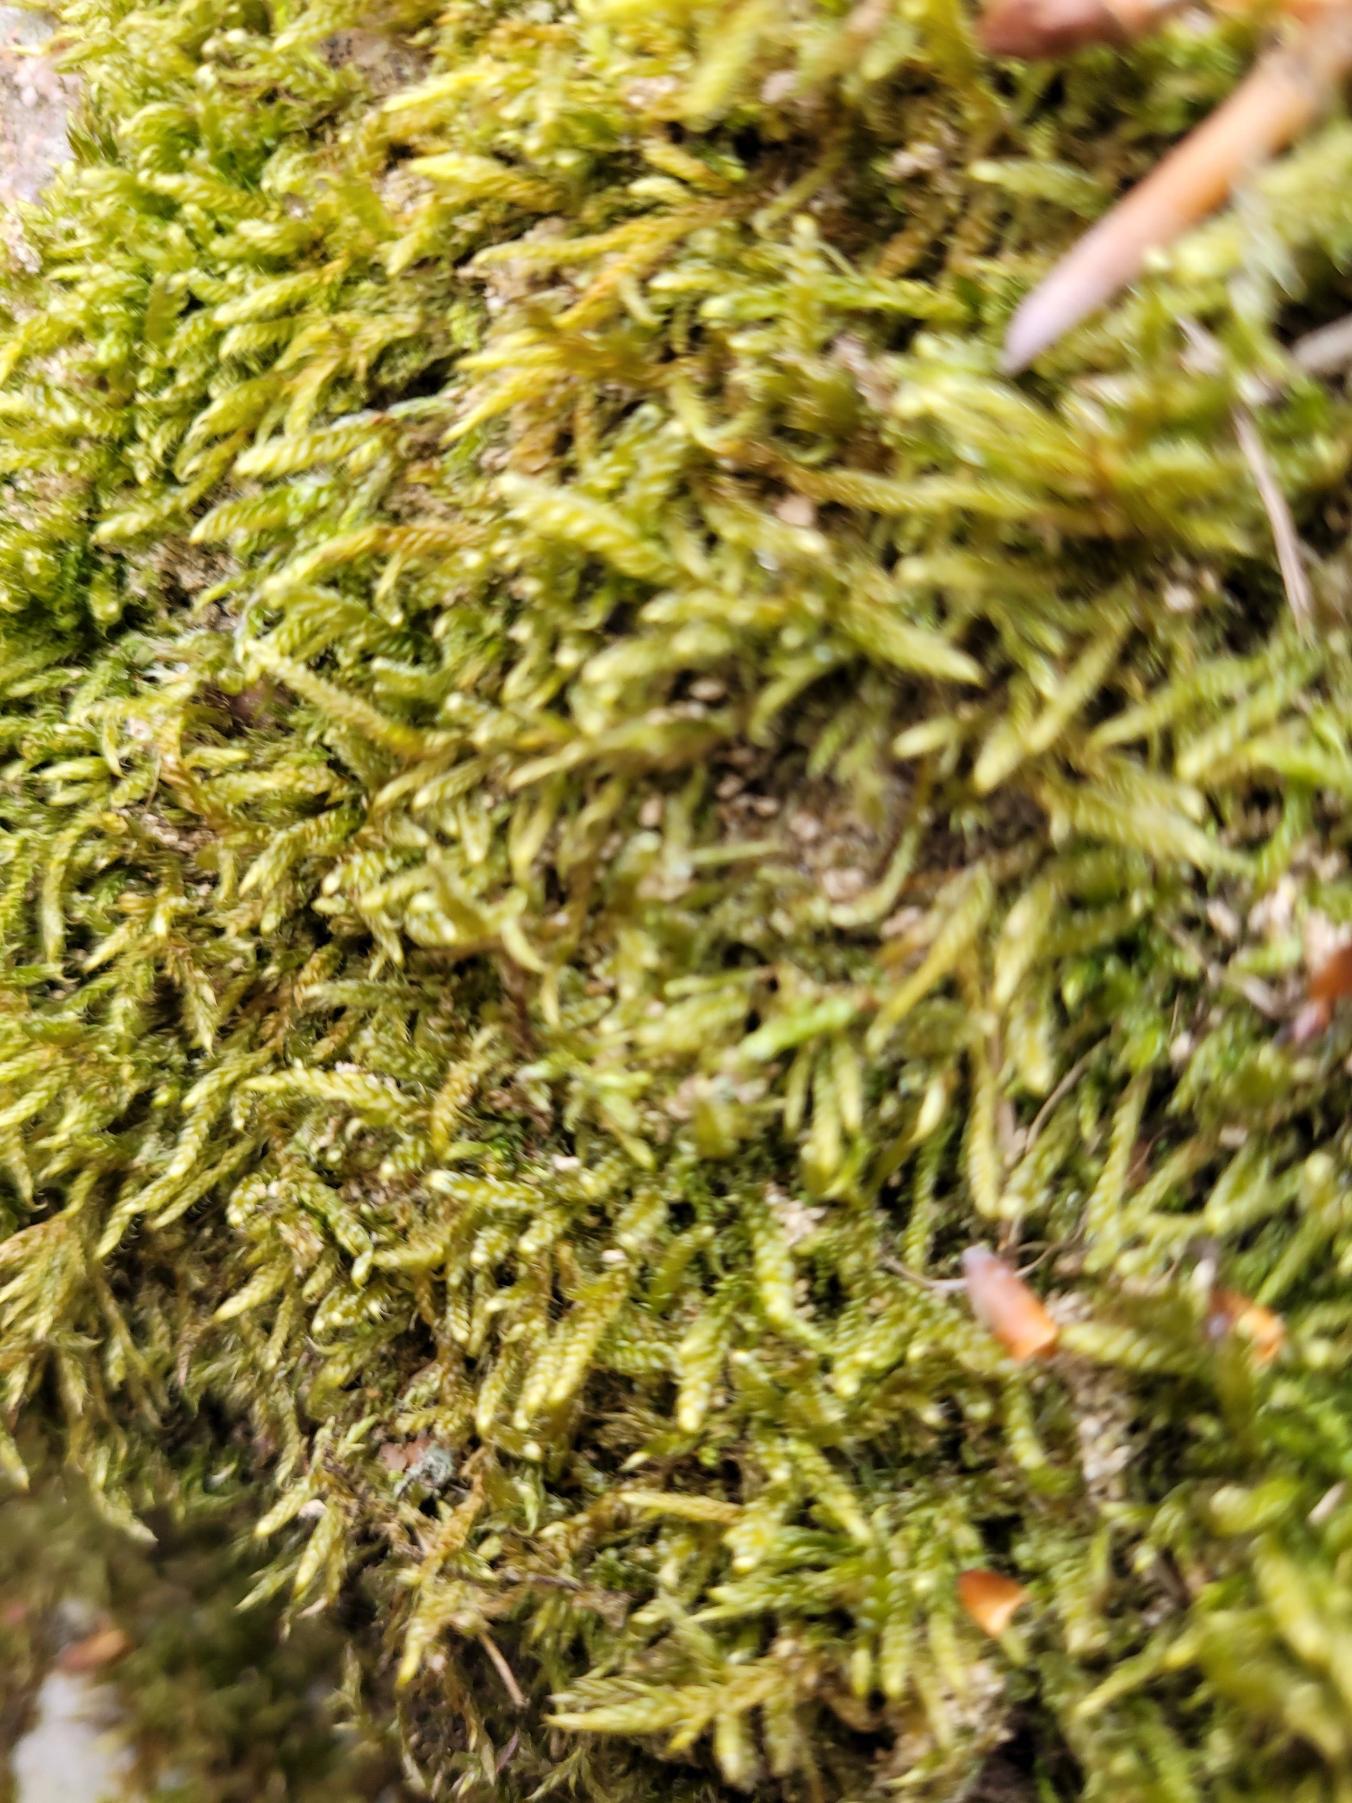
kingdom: Plantae
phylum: Bryophyta
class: Bryopsida
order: Hypnales
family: Hypnaceae
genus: Hypnum
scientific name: Hypnum cupressiforme
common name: Almindelig cypresmos
